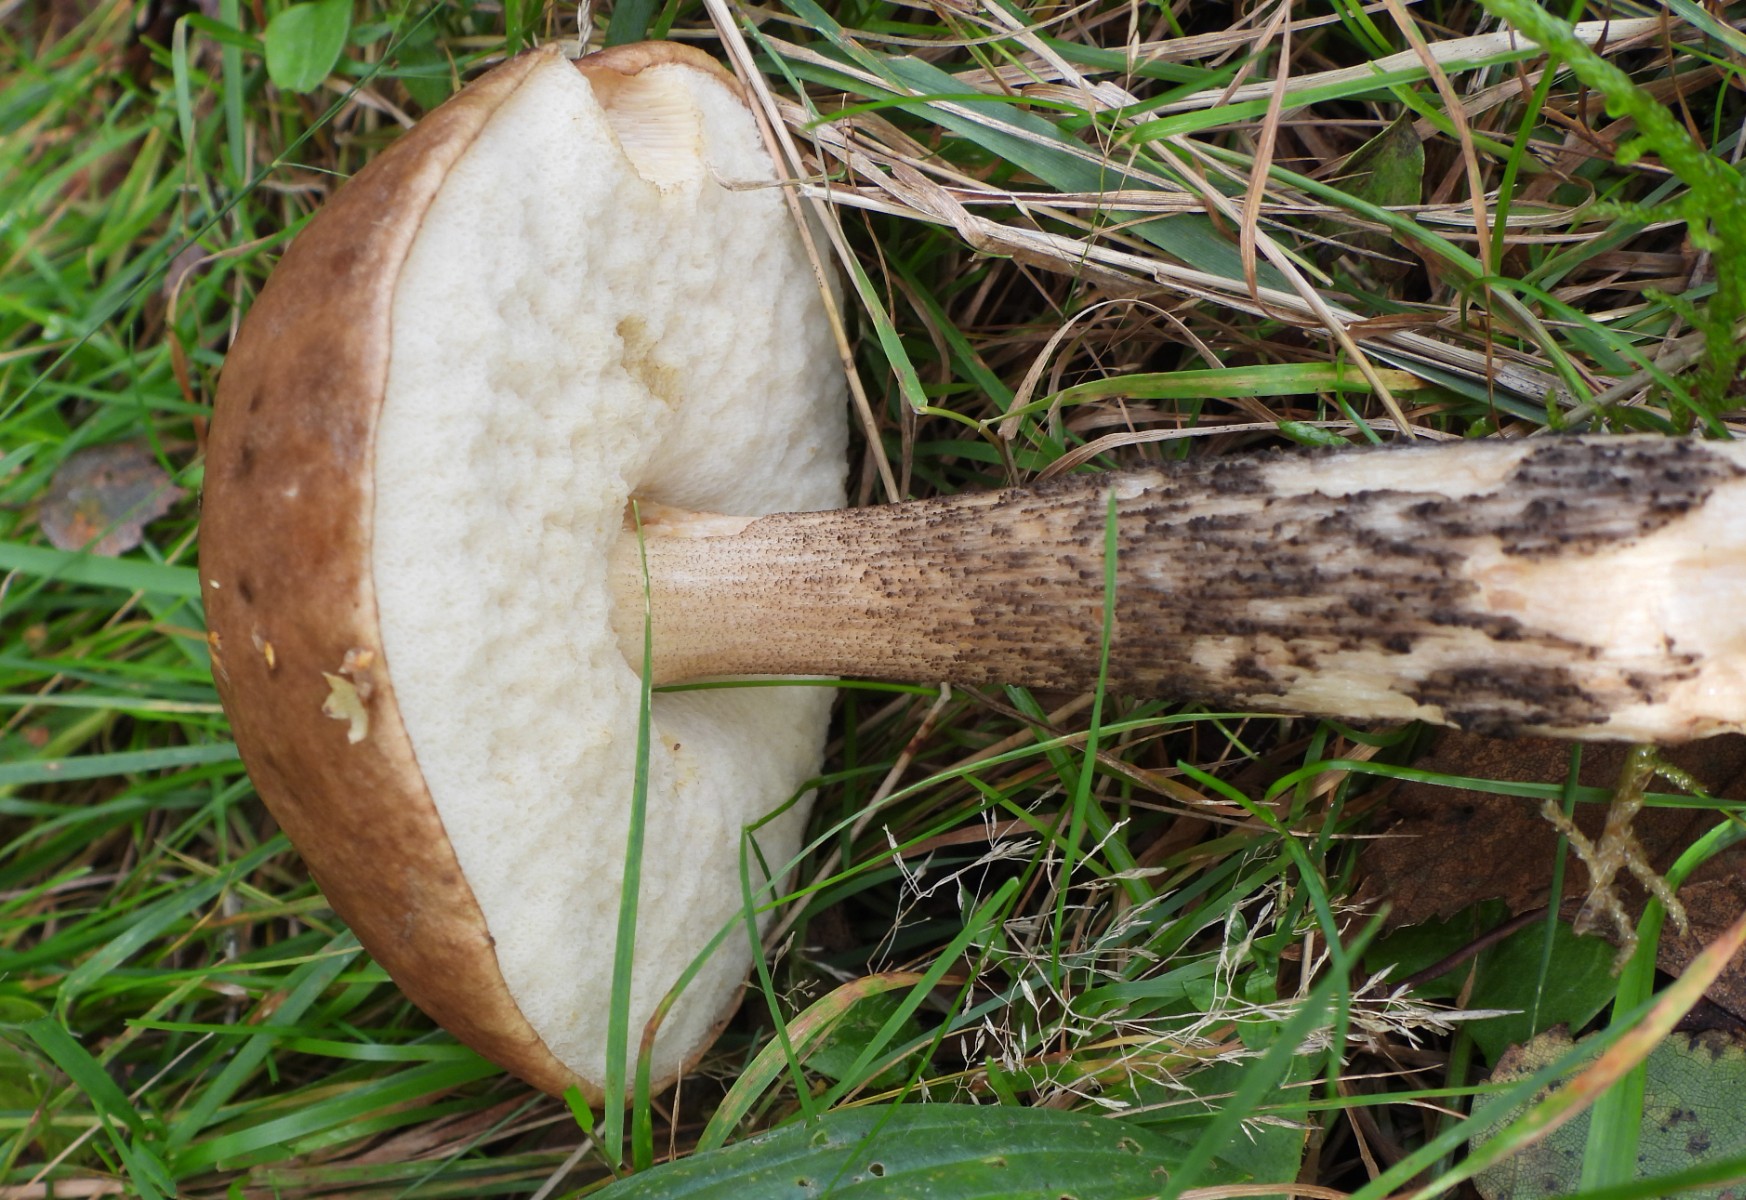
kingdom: Fungi
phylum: Basidiomycota
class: Agaricomycetes
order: Boletales
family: Boletaceae
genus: Leccinum
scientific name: Leccinum scabrum
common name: brun skælrørhat
